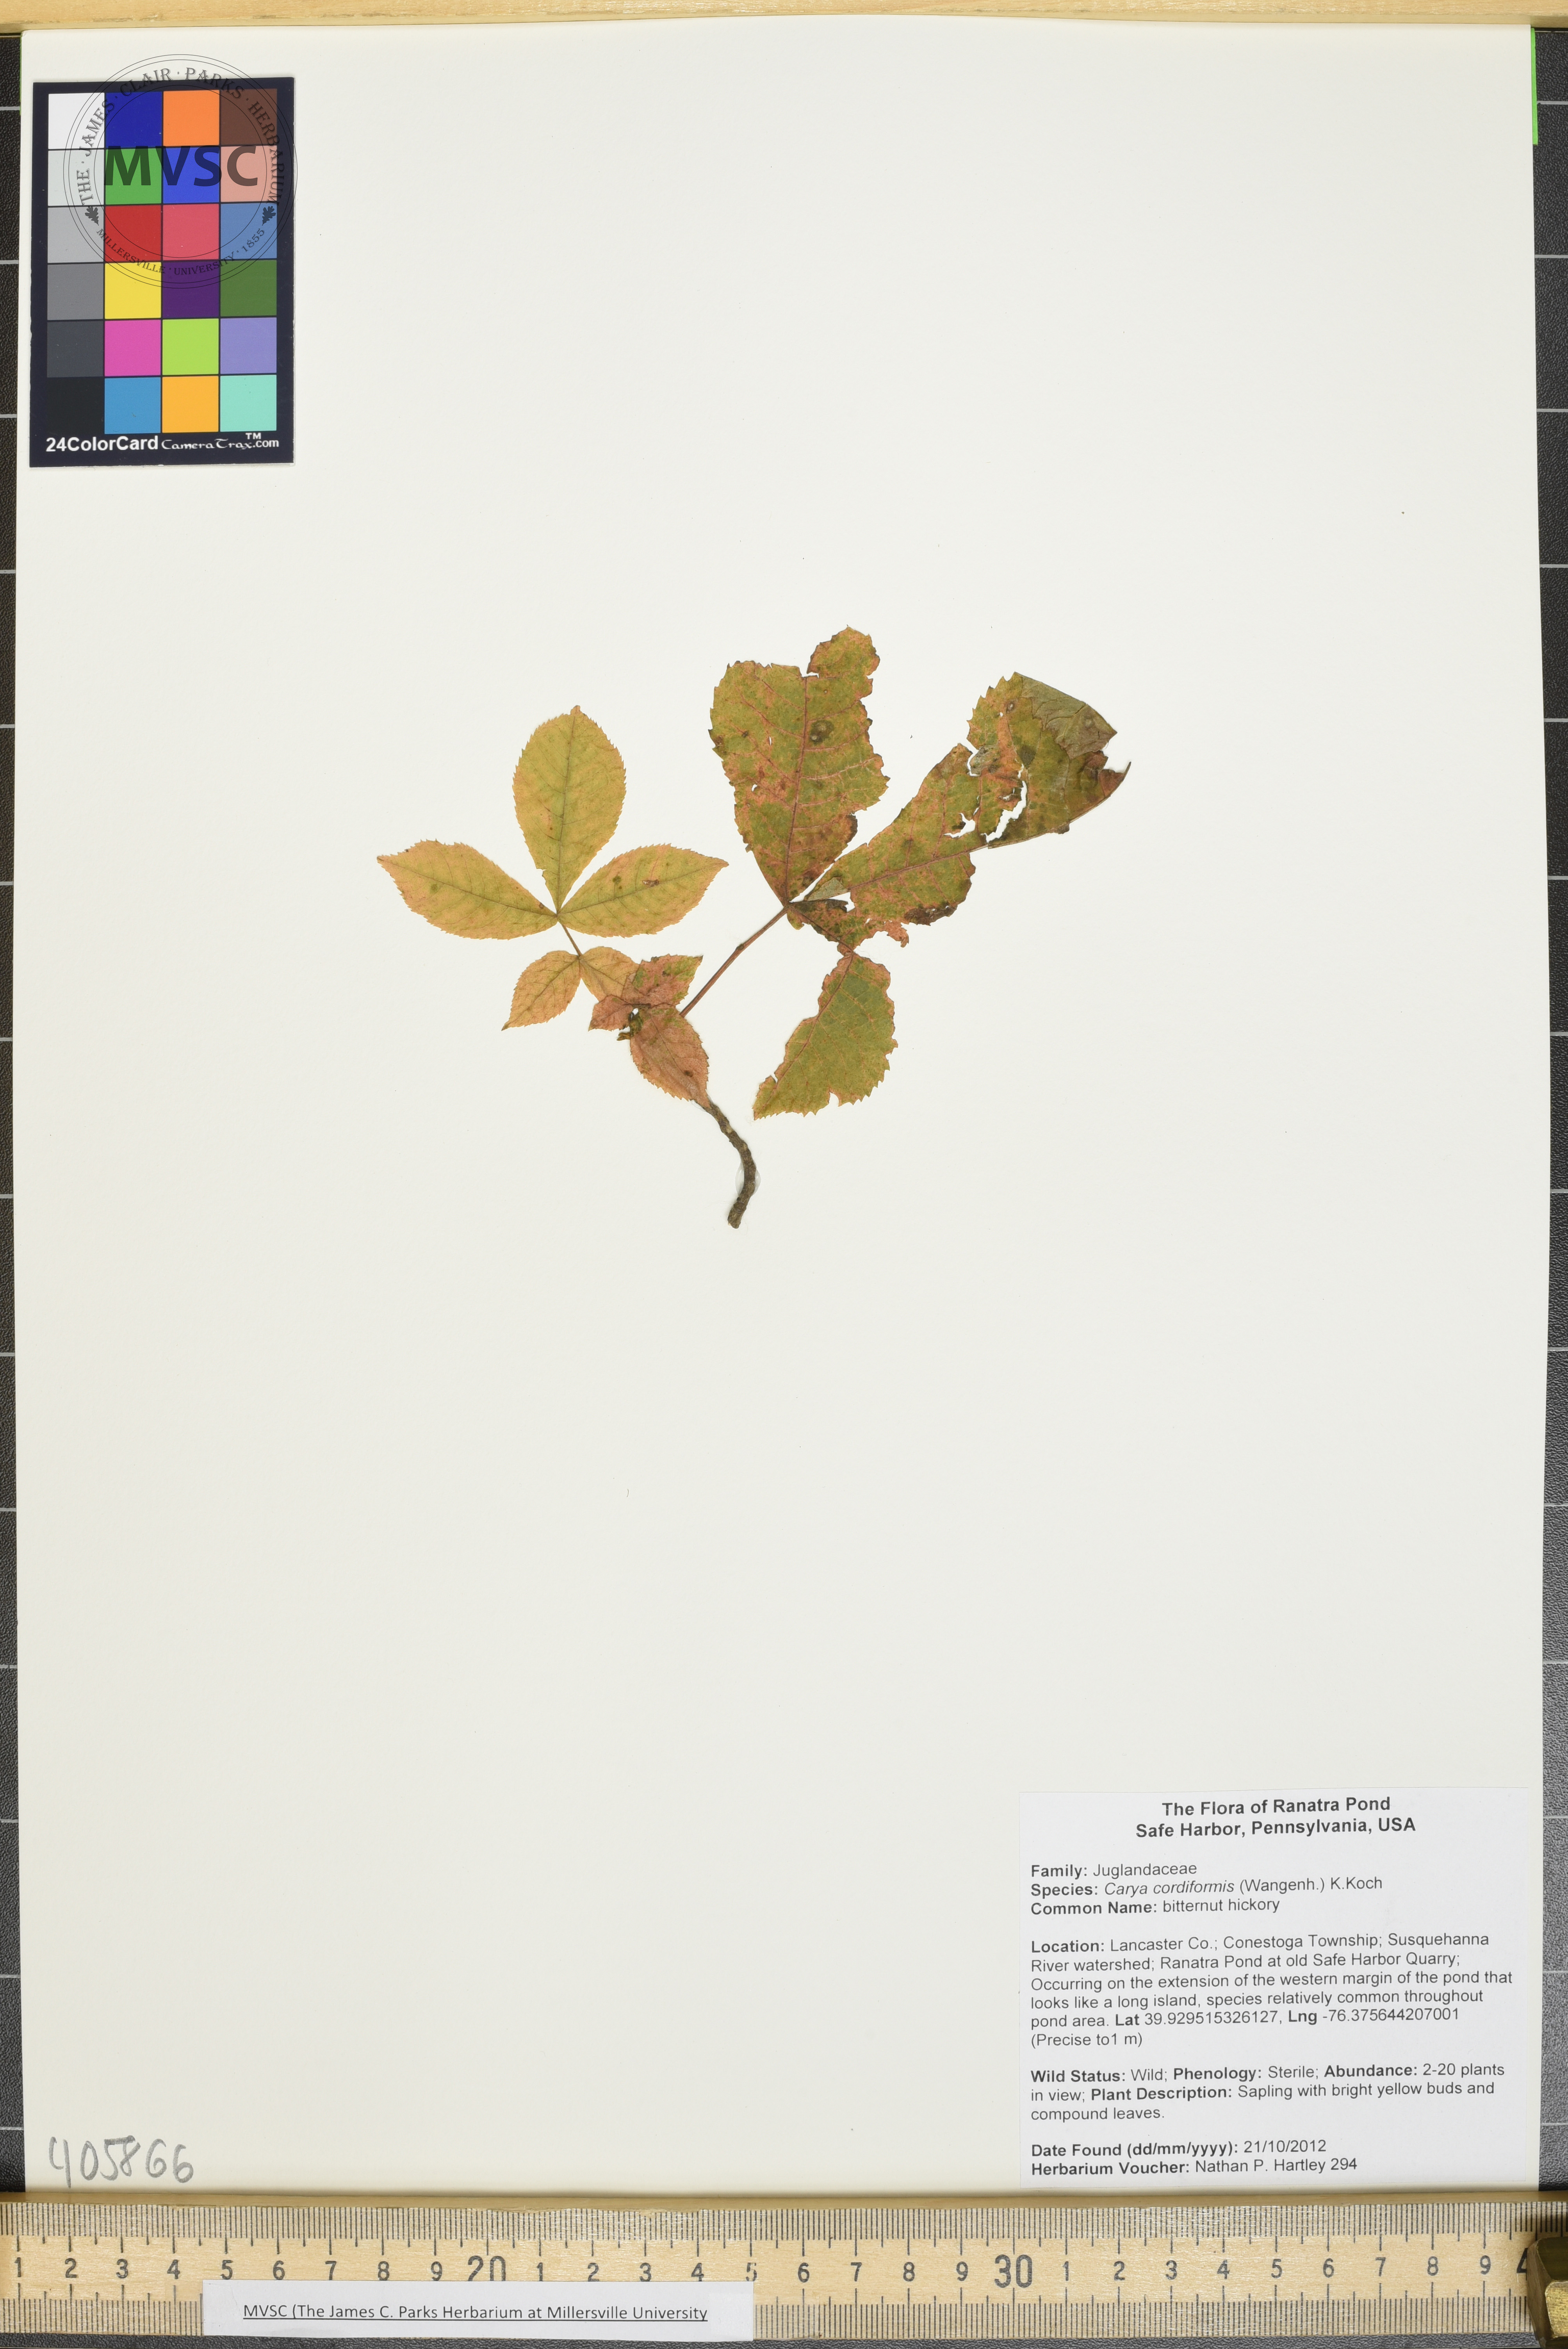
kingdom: Plantae
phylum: Tracheophyta
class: Magnoliopsida
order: Fagales
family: Juglandaceae
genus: Carya
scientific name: Carya cordiformis
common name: bitternut hickory
